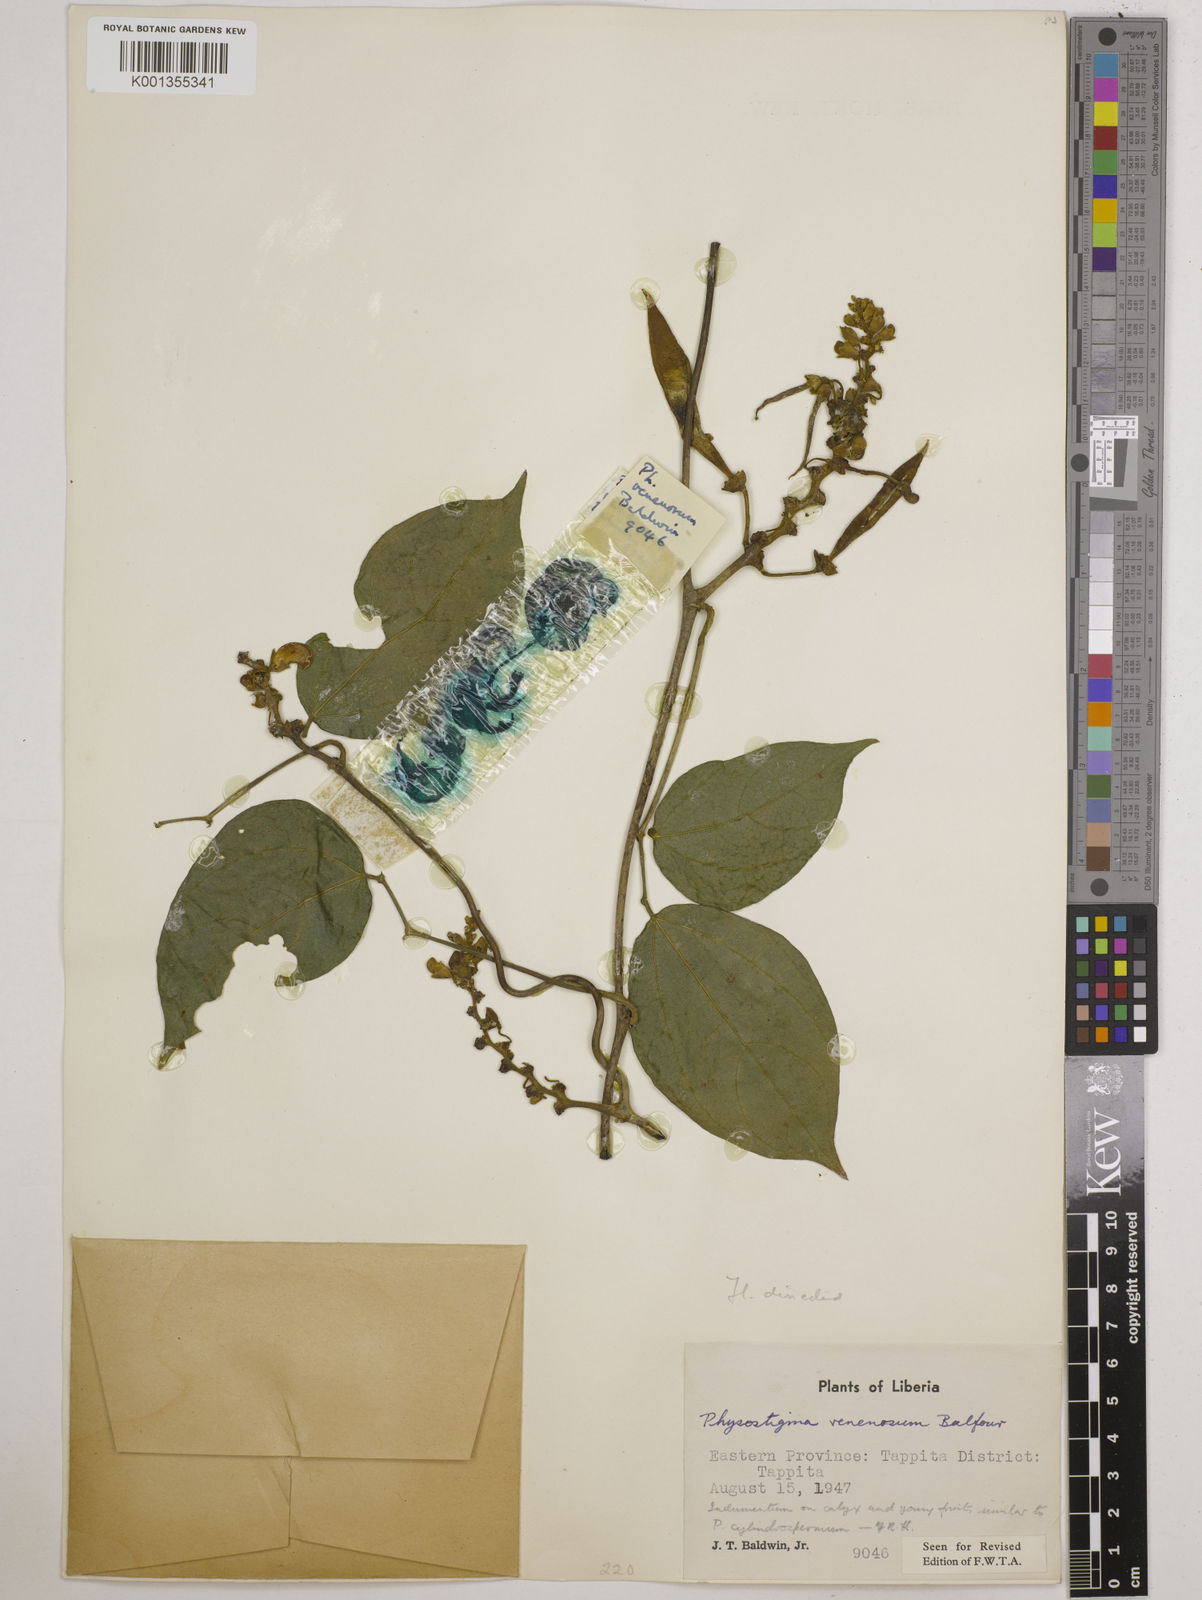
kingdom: Plantae
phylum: Tracheophyta
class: Magnoliopsida
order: Fabales
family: Fabaceae
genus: Physostigma
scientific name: Physostigma venenosum
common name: Calabar-bean
